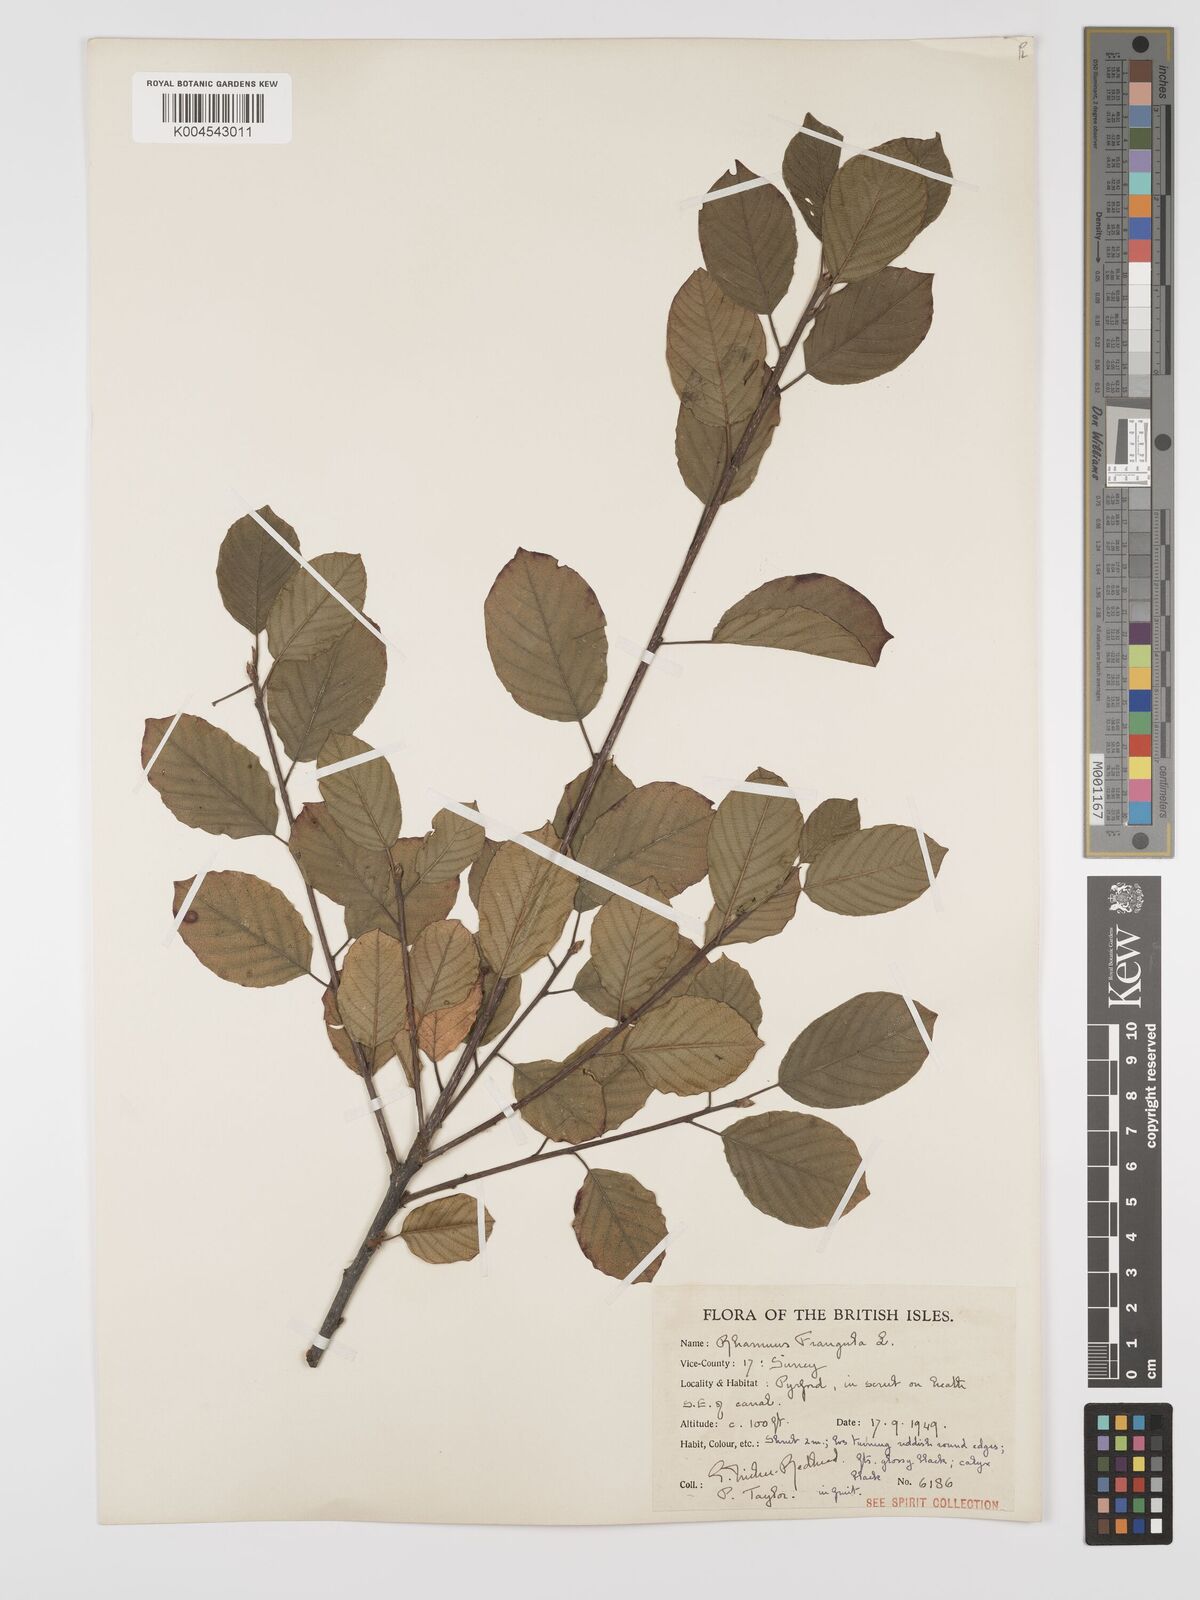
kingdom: Plantae
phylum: Tracheophyta
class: Magnoliopsida
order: Rosales
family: Rhamnaceae
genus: Frangula
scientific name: Frangula alnus
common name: Alder buckthorn
